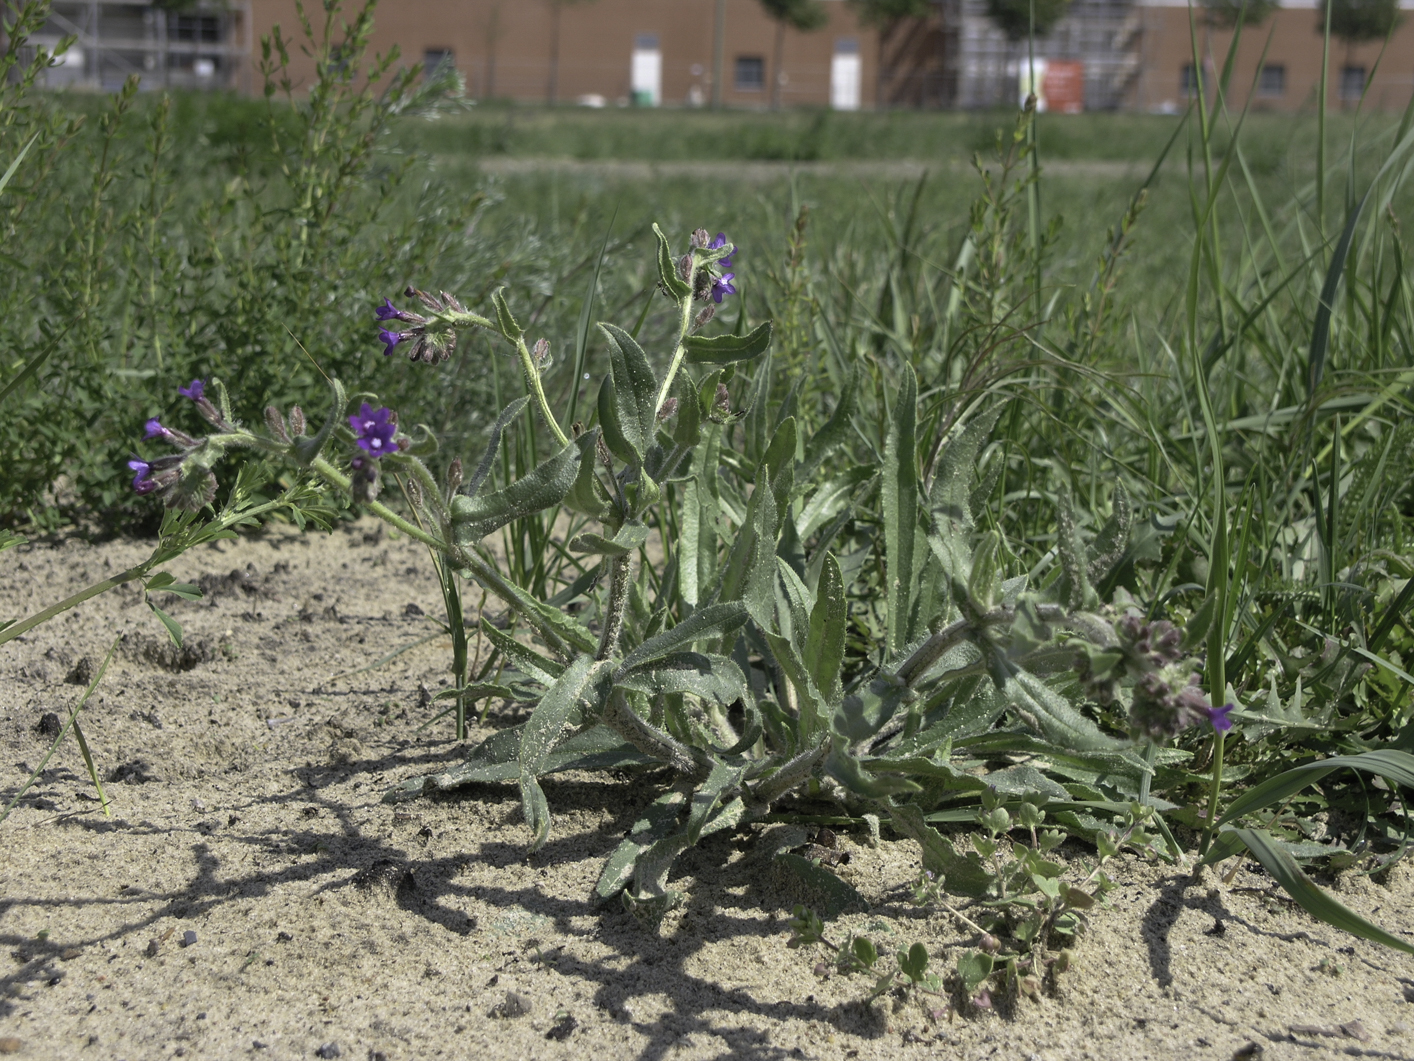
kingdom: Plantae
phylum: Tracheophyta
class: Magnoliopsida
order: Boraginales
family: Boraginaceae
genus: Anchusa
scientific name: Anchusa officinalis
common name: Alkanet
